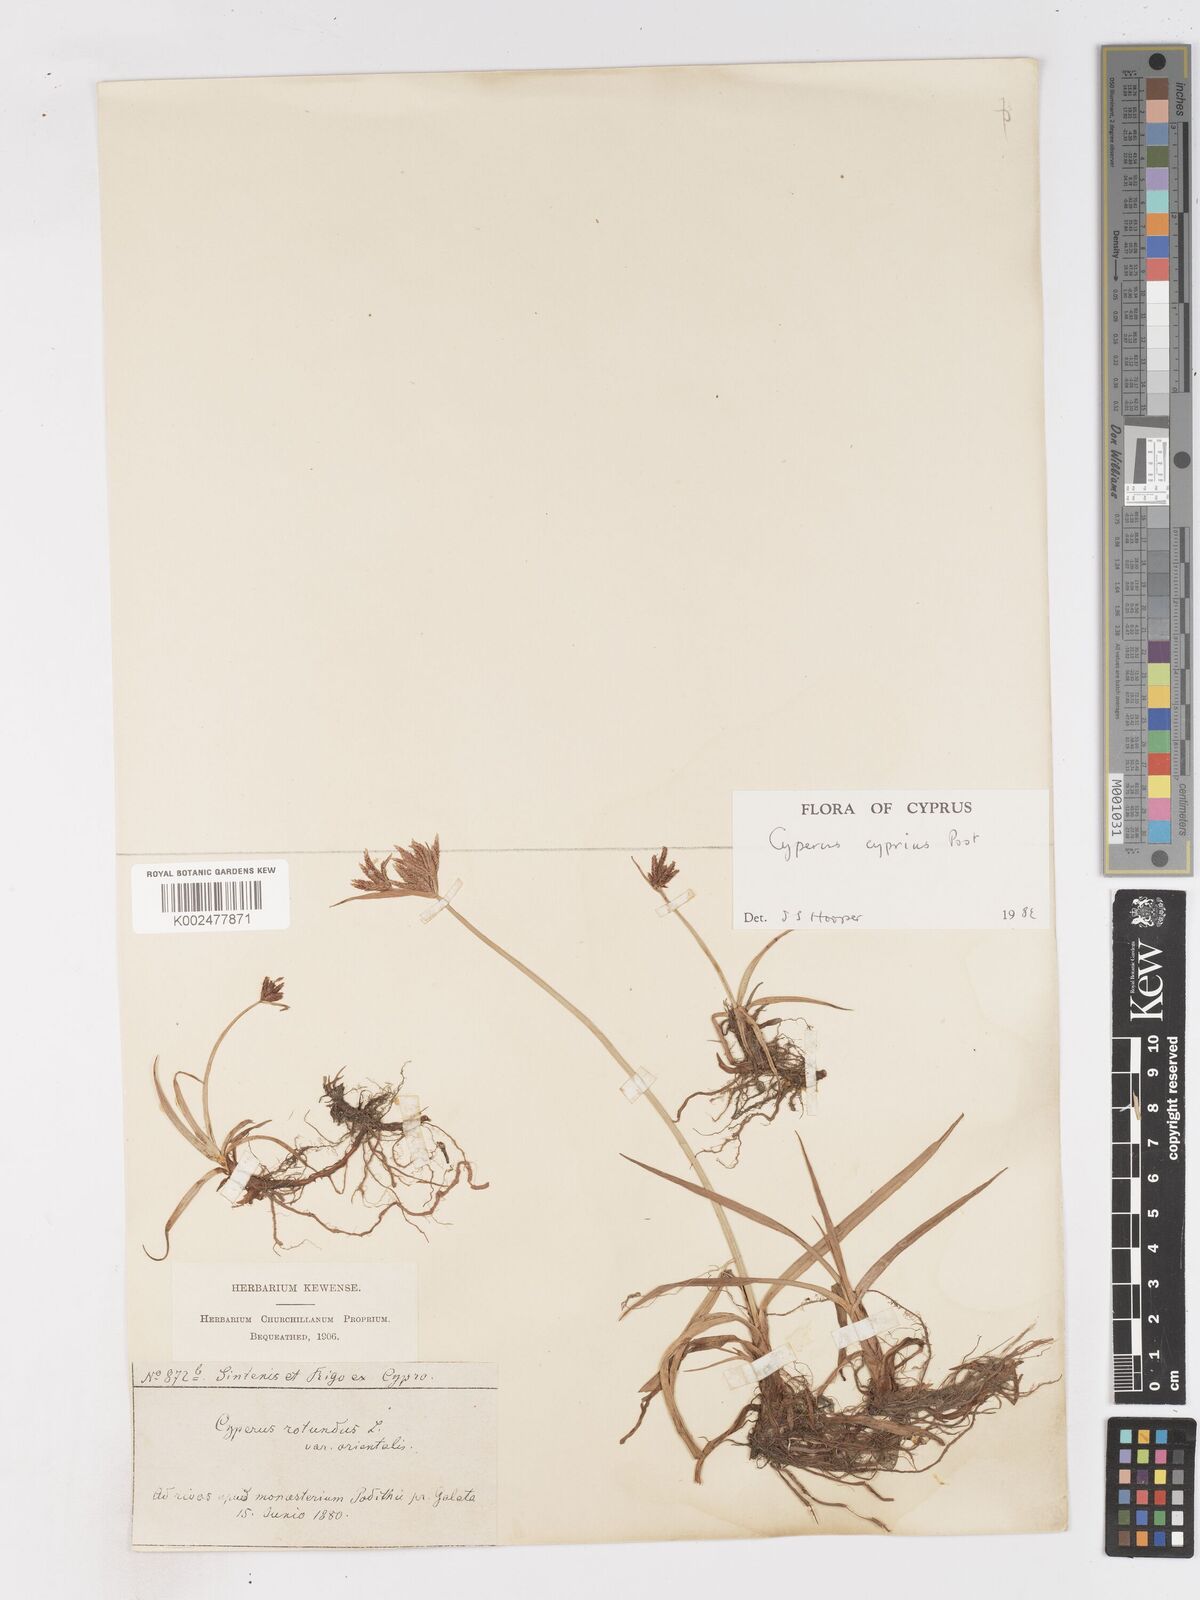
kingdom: Plantae
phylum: Tracheophyta
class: Liliopsida
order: Poales
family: Cyperaceae
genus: Cyperus
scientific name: Cyperus longus
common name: Galingale
